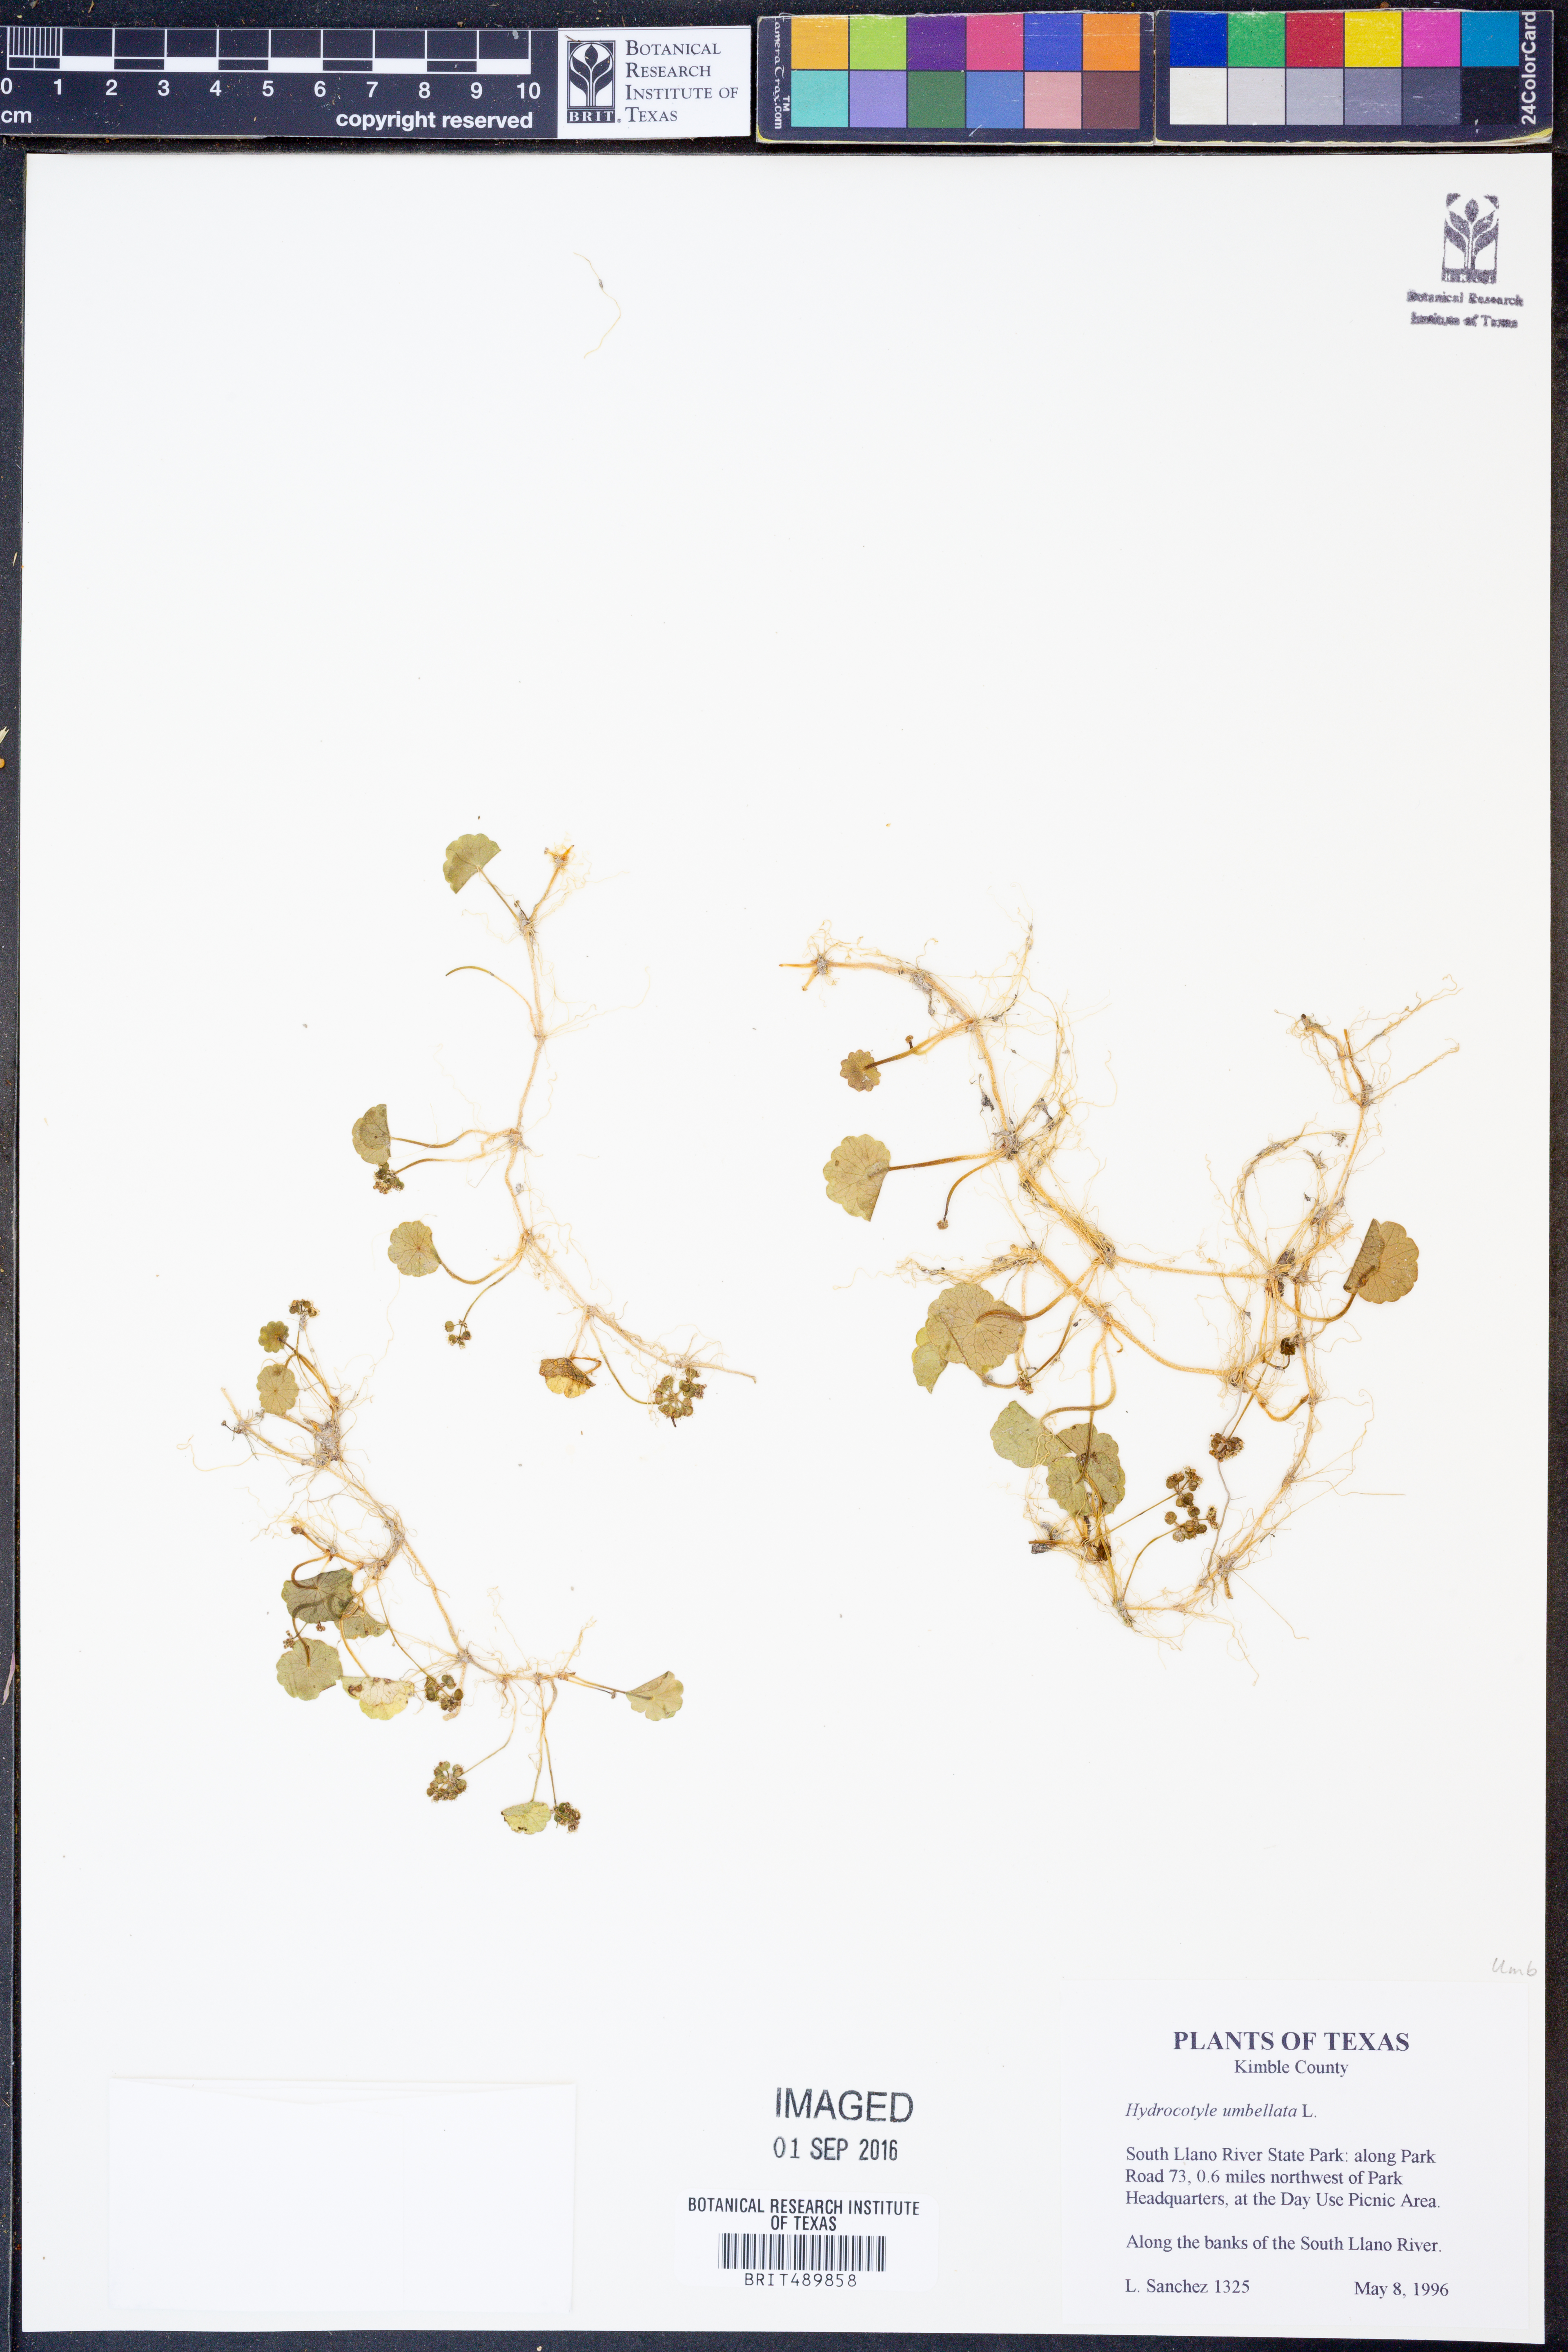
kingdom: Plantae
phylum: Tracheophyta
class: Magnoliopsida
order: Apiales
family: Araliaceae
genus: Hydrocotyle
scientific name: Hydrocotyle umbellata
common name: Water pennywort
